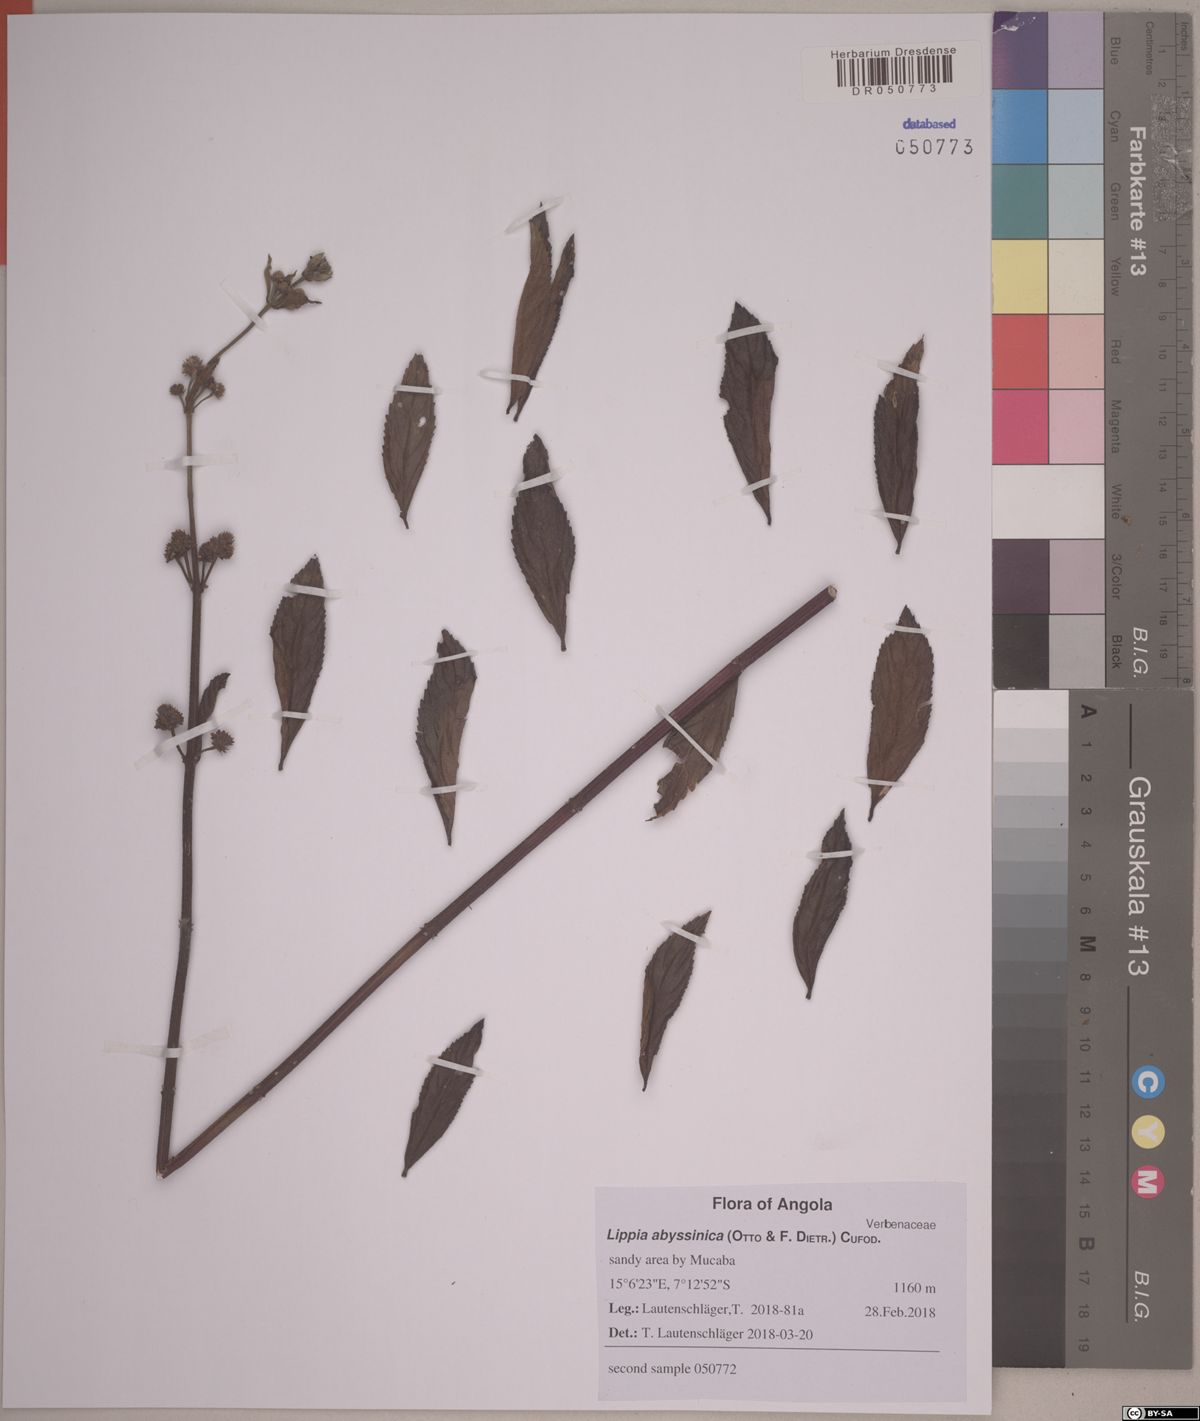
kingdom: Plantae
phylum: Tracheophyta
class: Magnoliopsida
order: Lamiales
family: Verbenaceae
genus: Lippia
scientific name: Lippia abyssinica
